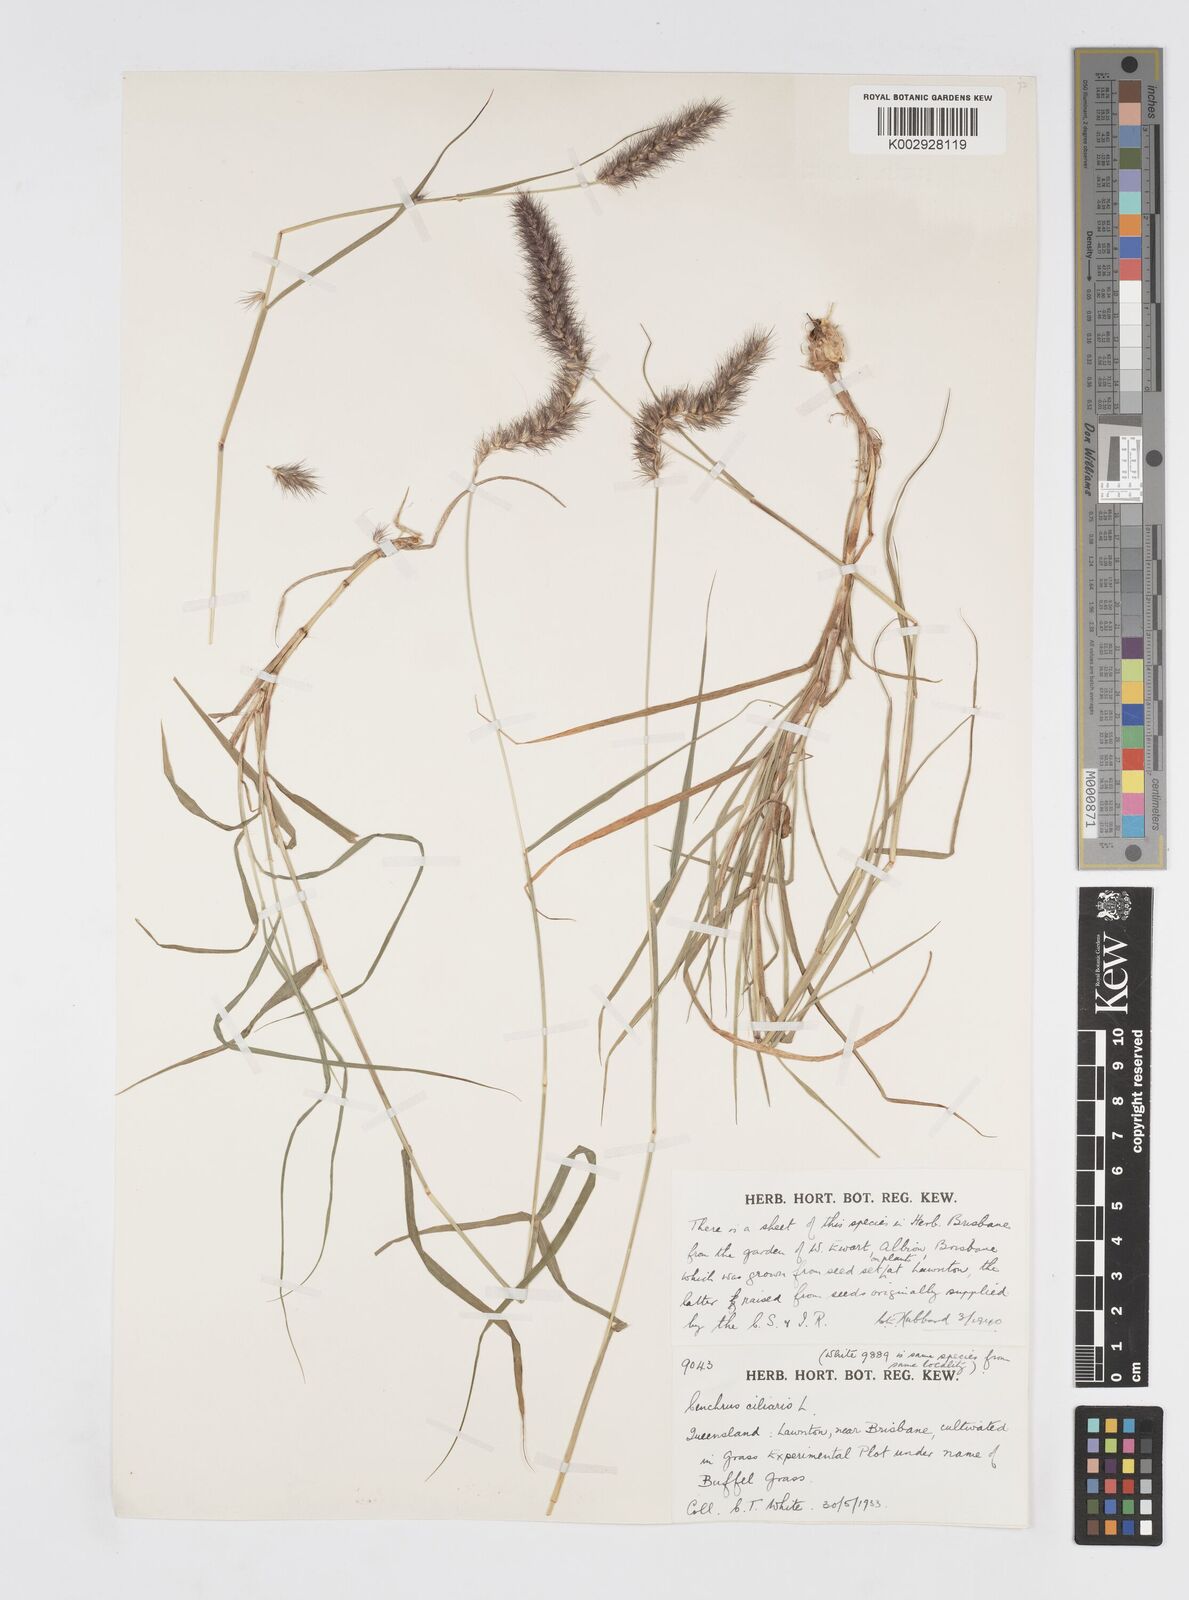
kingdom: Plantae
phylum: Tracheophyta
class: Liliopsida
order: Poales
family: Poaceae
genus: Cenchrus
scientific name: Cenchrus ciliaris
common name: Buffelgrass
